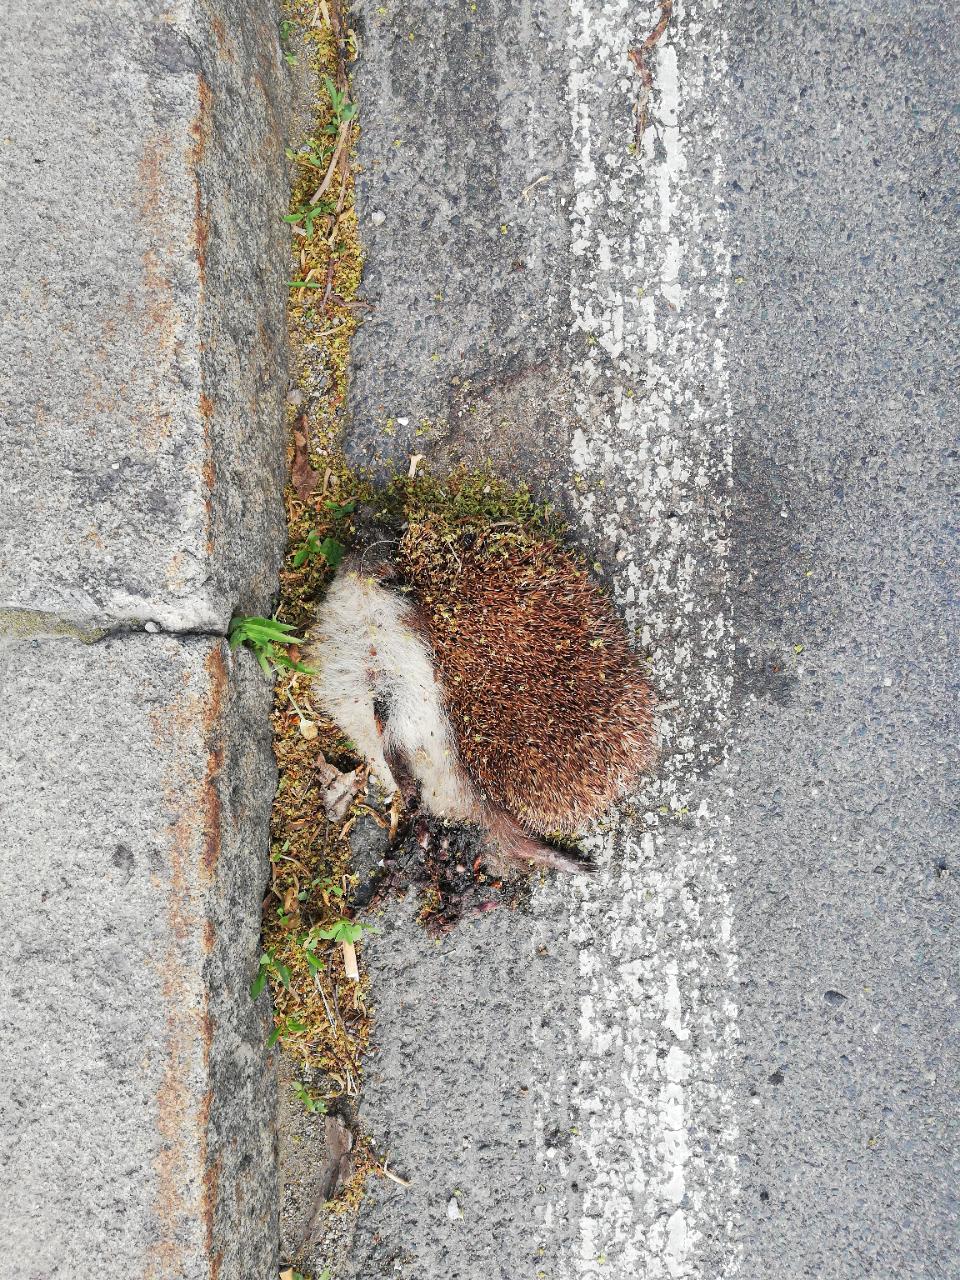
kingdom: Animalia
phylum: Chordata
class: Mammalia
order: Erinaceomorpha
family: Erinaceidae
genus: Erinaceus
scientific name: Erinaceus
